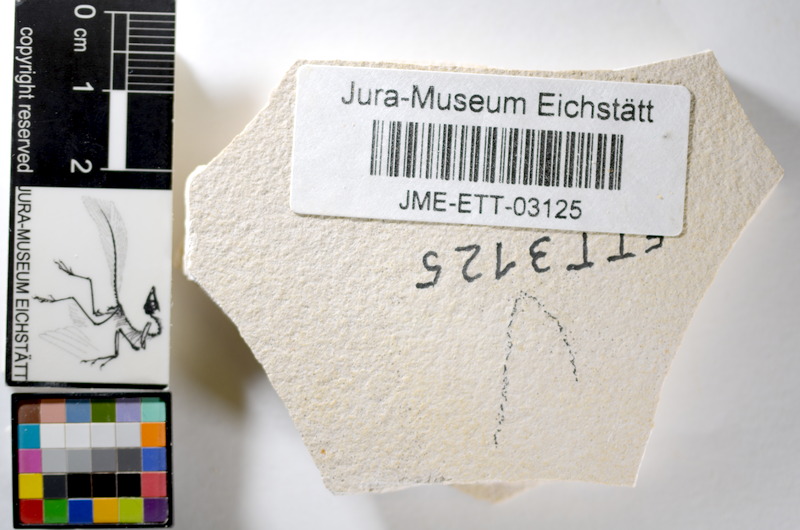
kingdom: Animalia
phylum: Chordata
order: Salmoniformes
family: Orthogonikleithridae
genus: Orthogonikleithrus
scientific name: Orthogonikleithrus hoelli
